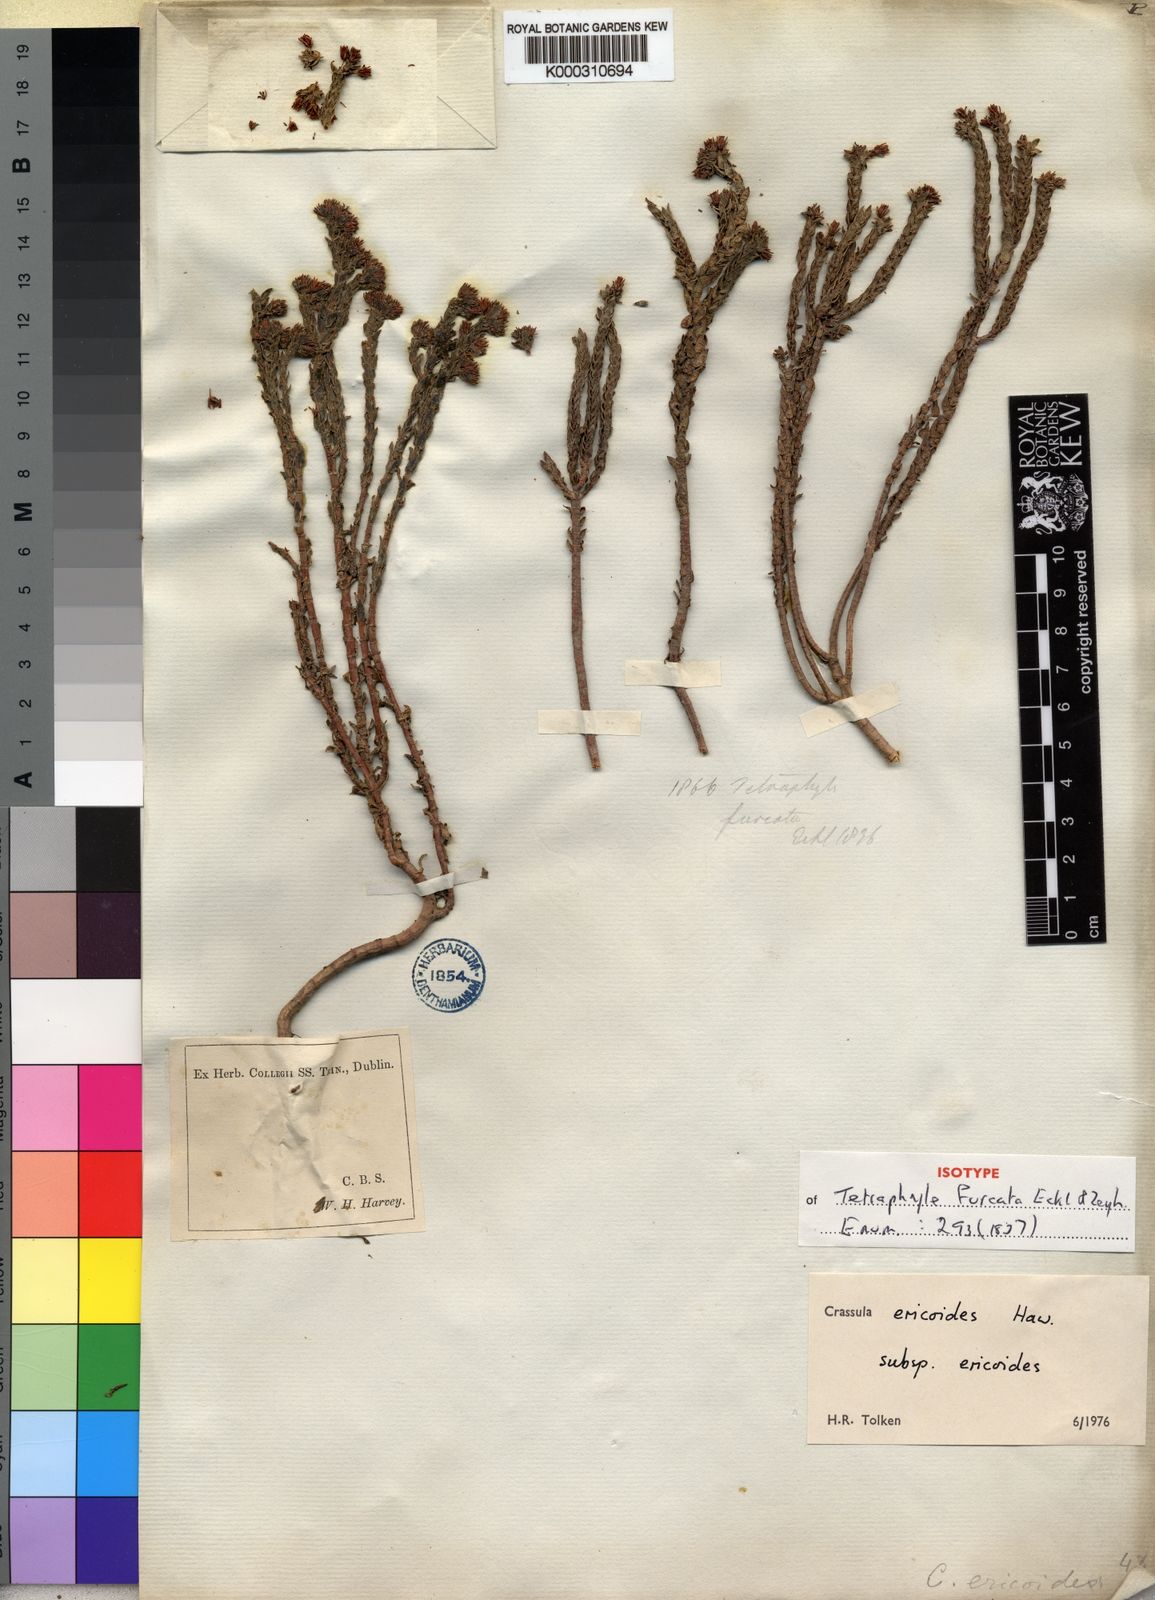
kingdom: Plantae
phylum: Tracheophyta
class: Magnoliopsida
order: Saxifragales
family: Crassulaceae
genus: Crassula
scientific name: Crassula ericoides
